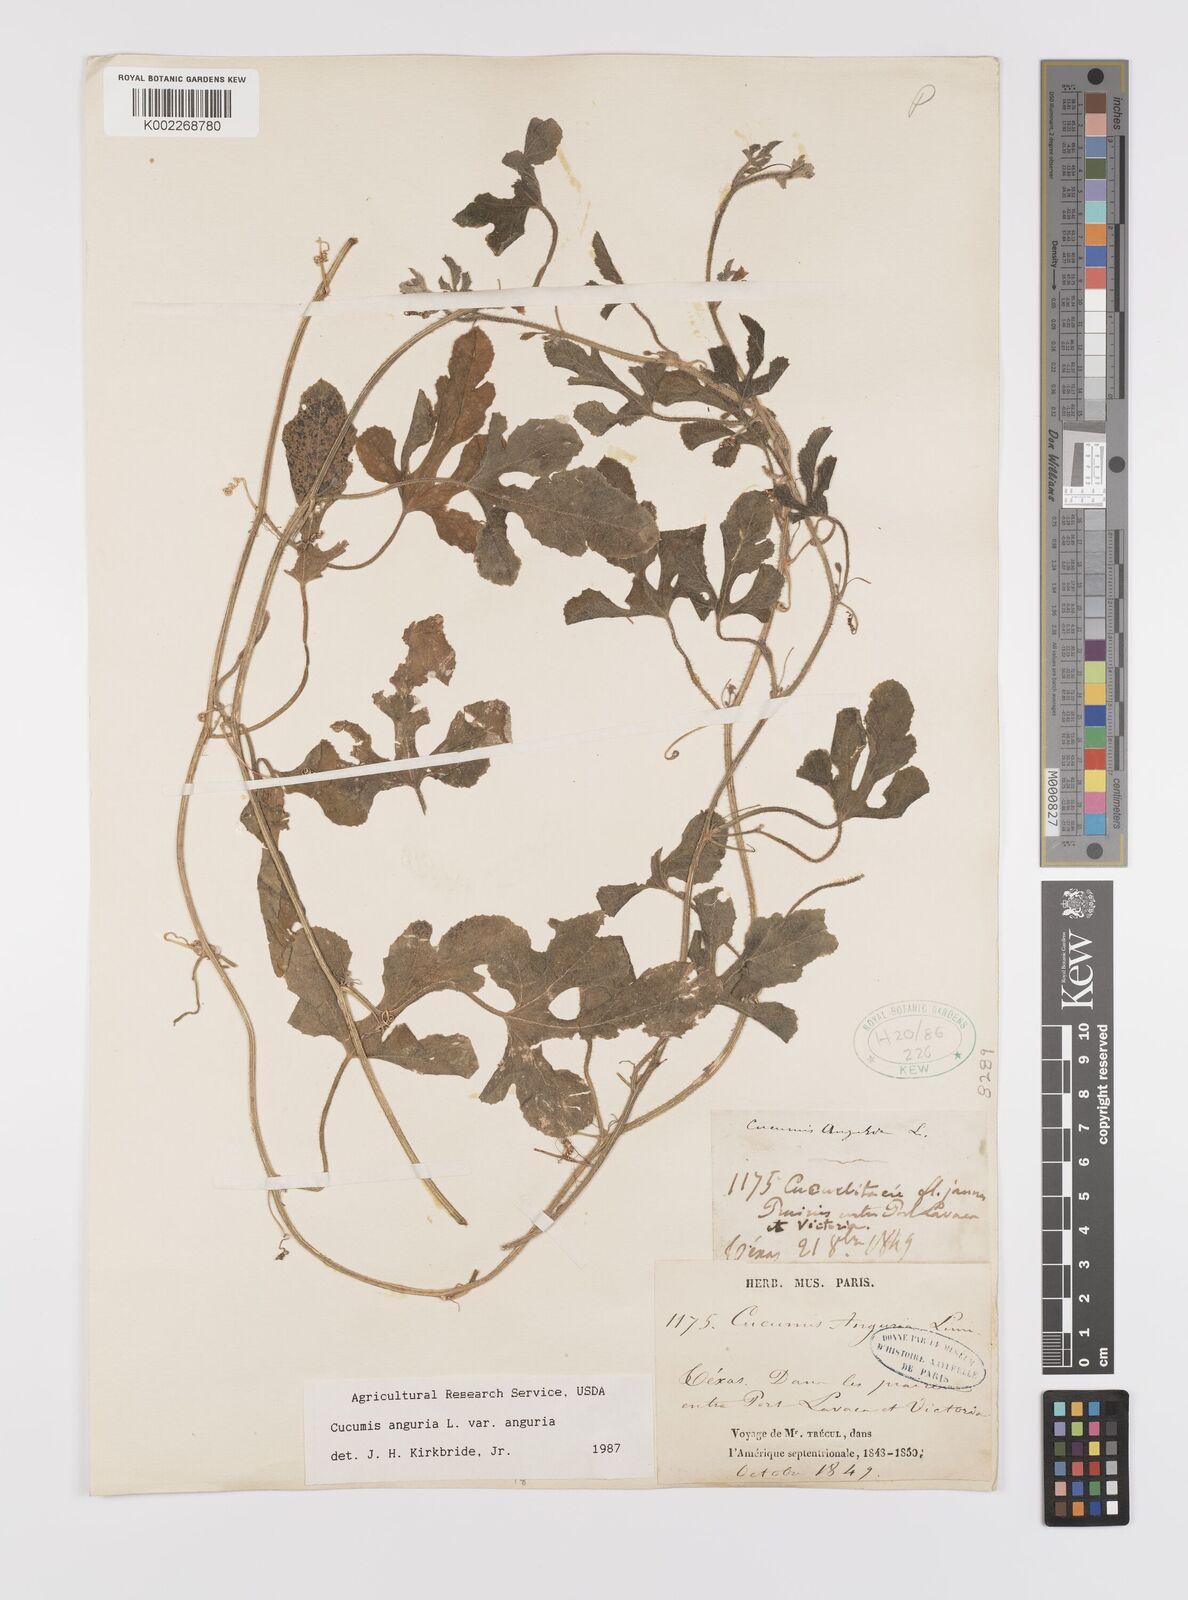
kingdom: Plantae
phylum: Tracheophyta
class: Magnoliopsida
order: Cucurbitales
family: Cucurbitaceae
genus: Cucumis
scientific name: Cucumis anguria
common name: West indian gherkin
